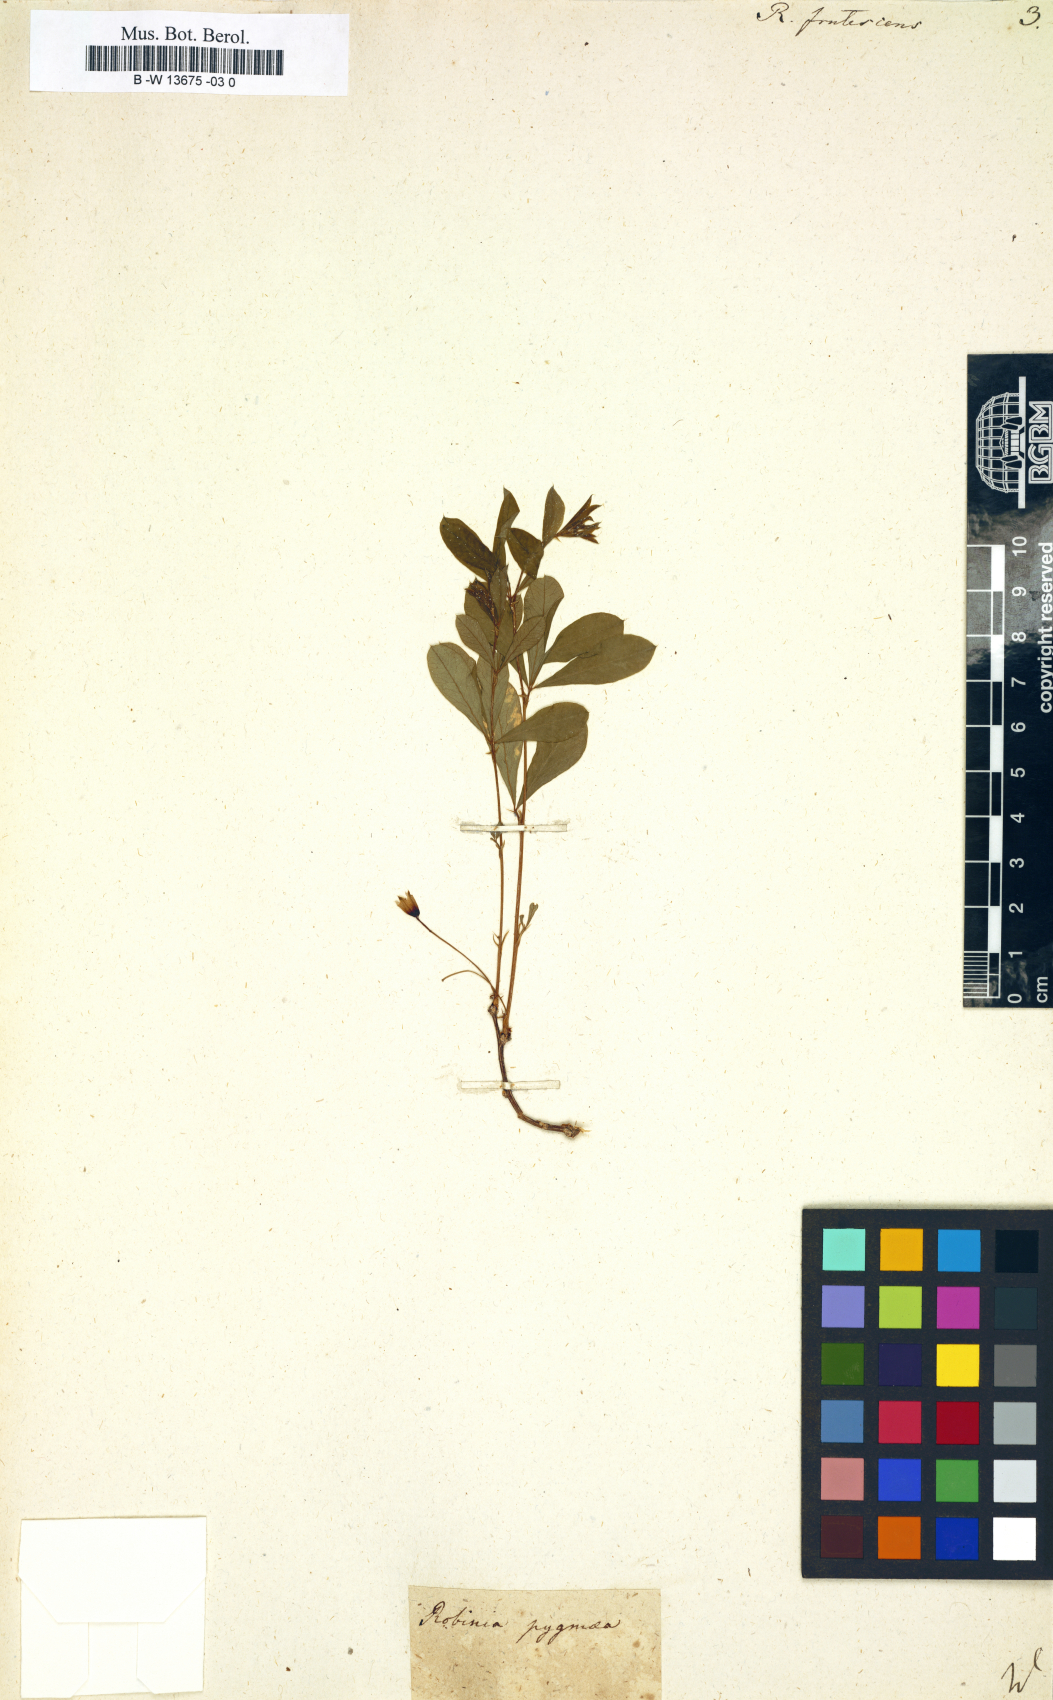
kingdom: Plantae
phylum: Tracheophyta
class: Magnoliopsida
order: Fabales
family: Fabaceae
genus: Caragana
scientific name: Caragana frutex
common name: Russian peashrub
